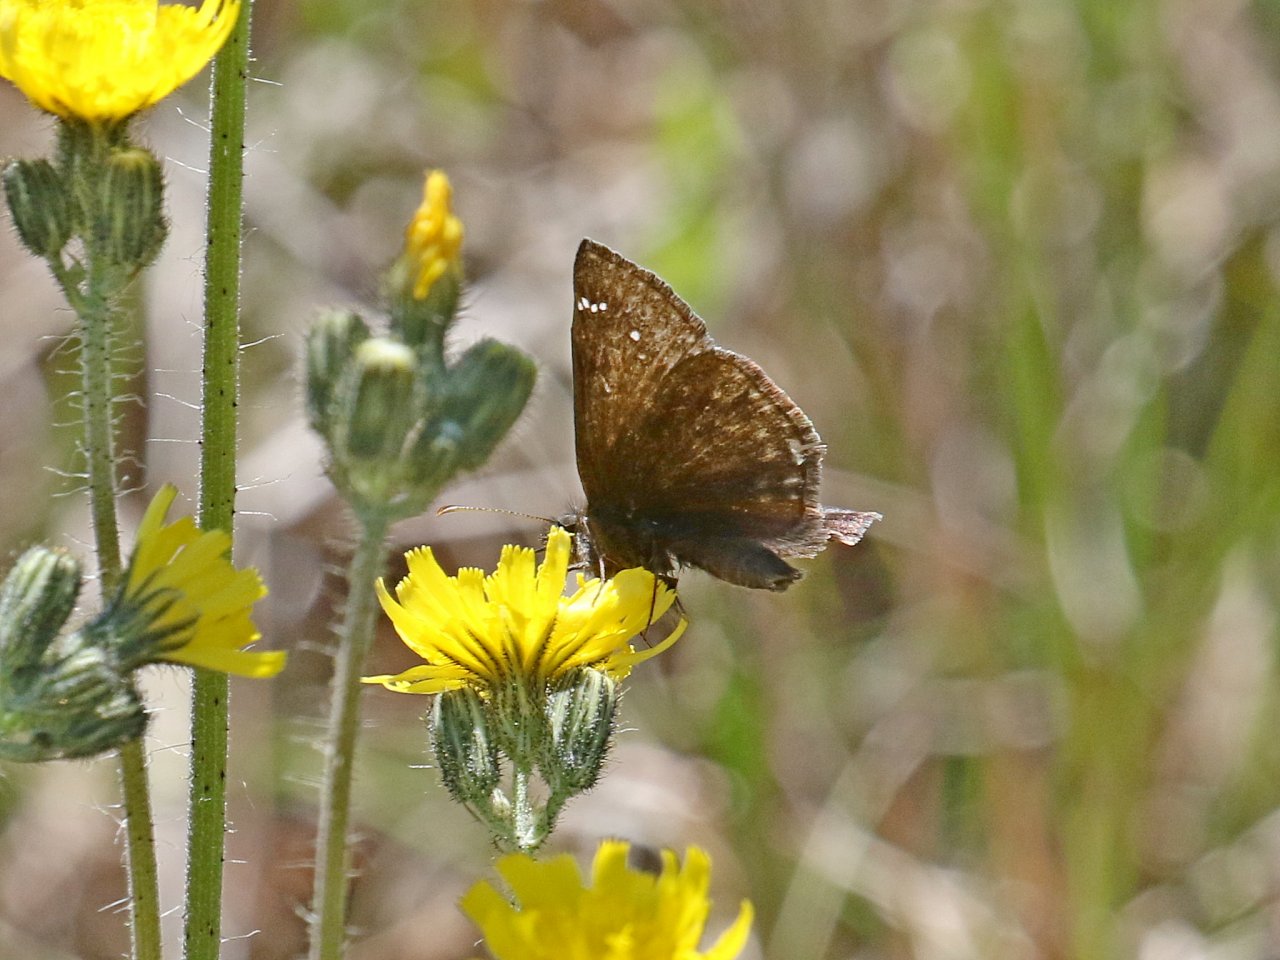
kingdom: Animalia
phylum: Arthropoda
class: Insecta
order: Lepidoptera
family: Hesperiidae
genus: Erynnis
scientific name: Erynnis
